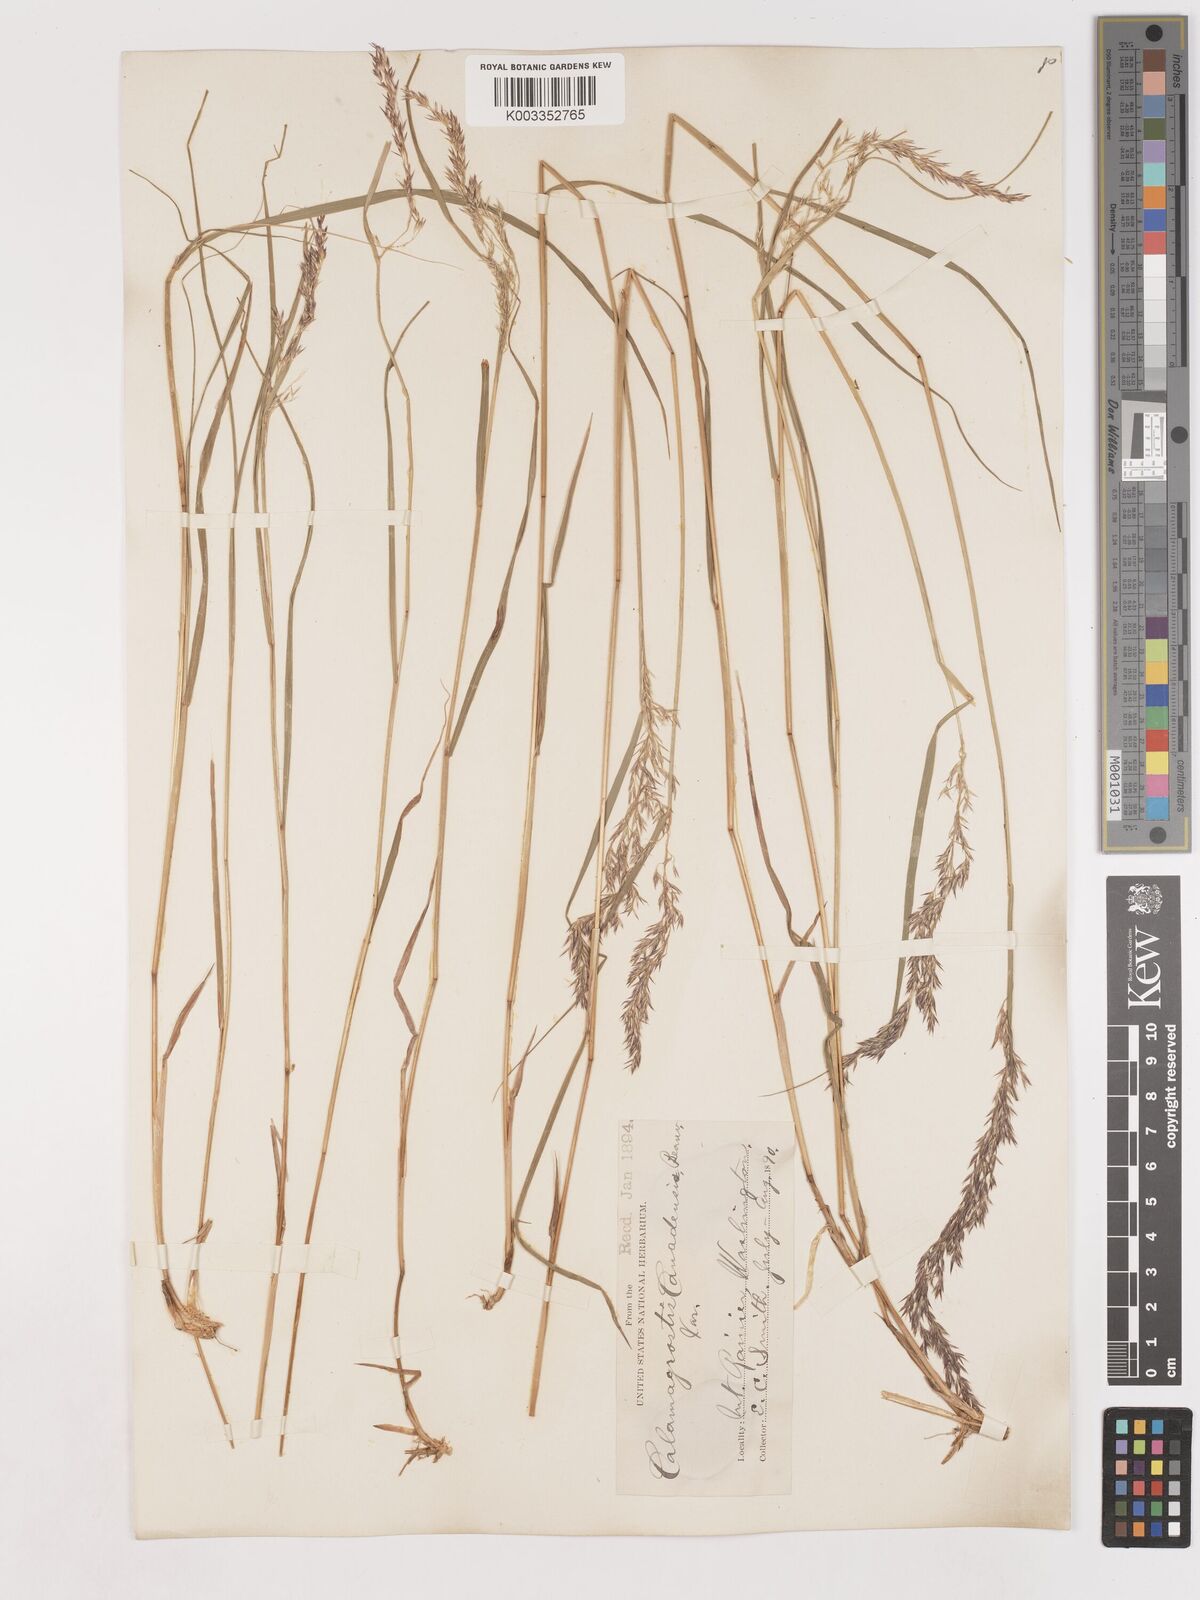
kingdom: Plantae
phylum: Tracheophyta
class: Liliopsida
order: Poales
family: Poaceae
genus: Calamagrostis
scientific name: Calamagrostis canadensis
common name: Canada bluejoint
